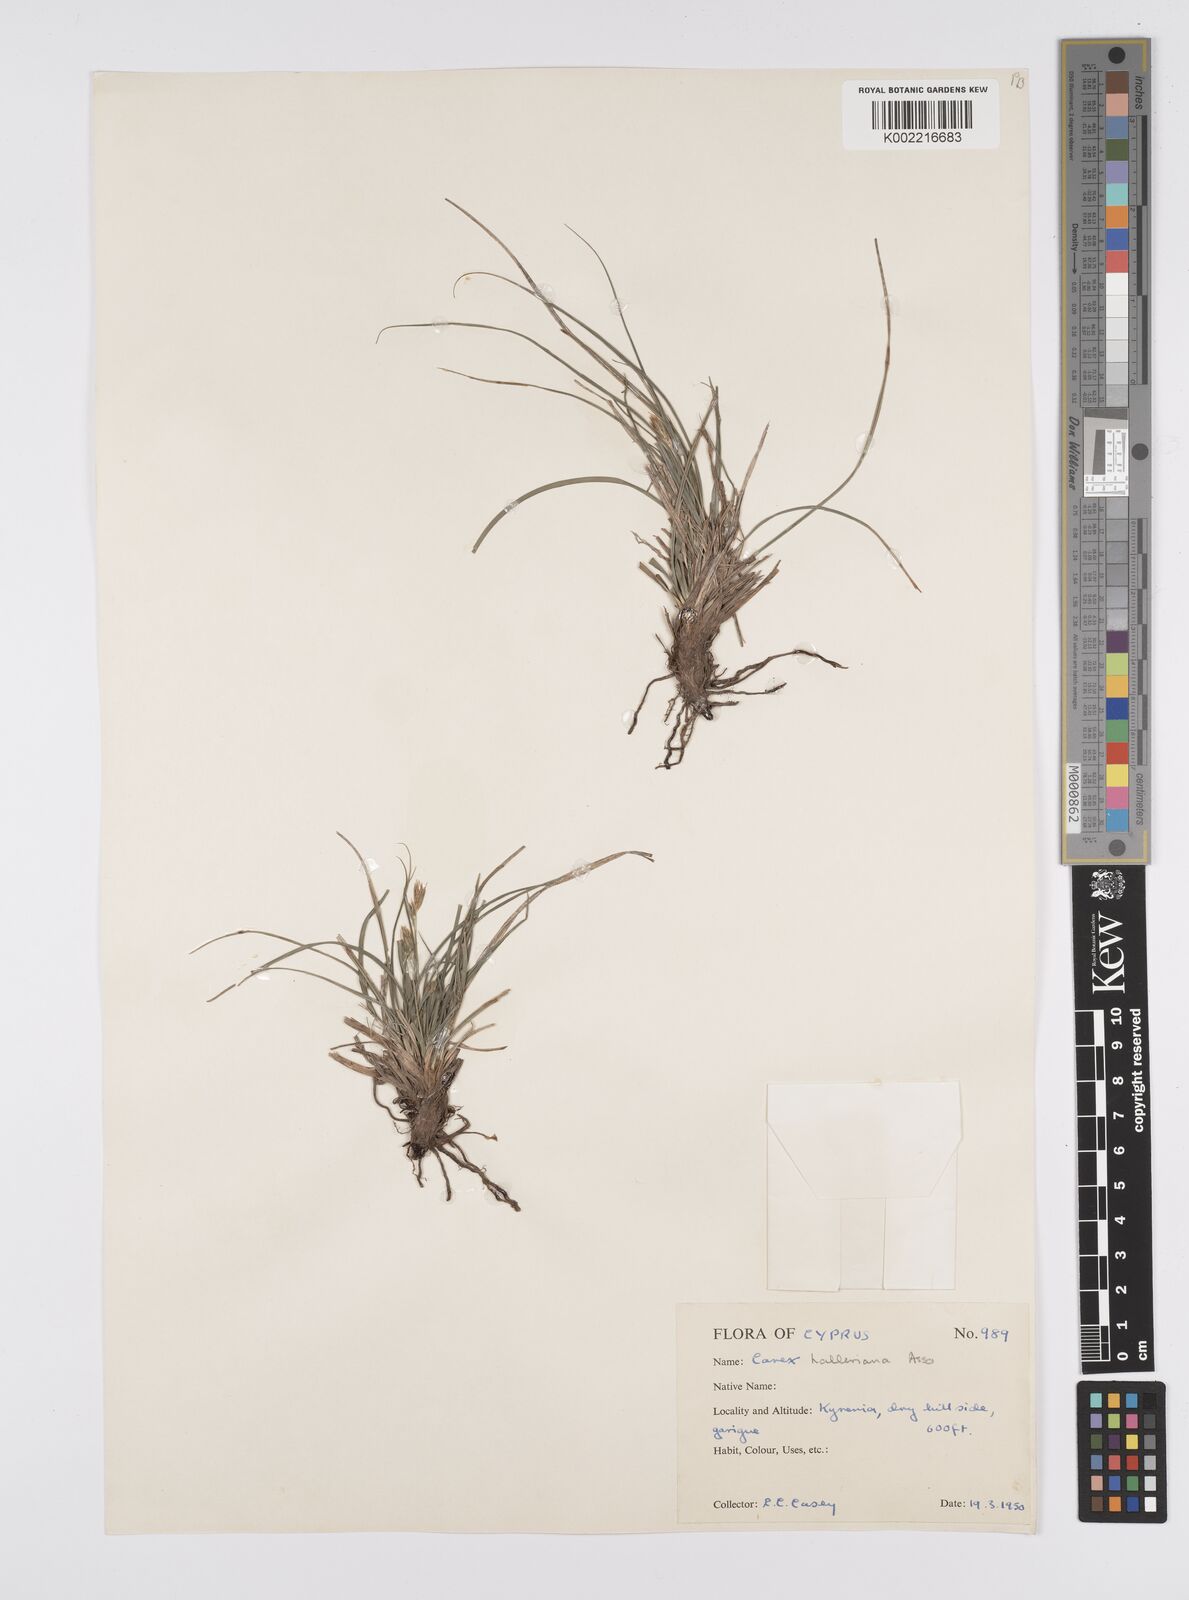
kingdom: Plantae
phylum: Tracheophyta
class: Liliopsida
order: Poales
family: Cyperaceae
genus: Carex
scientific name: Carex halleriana
